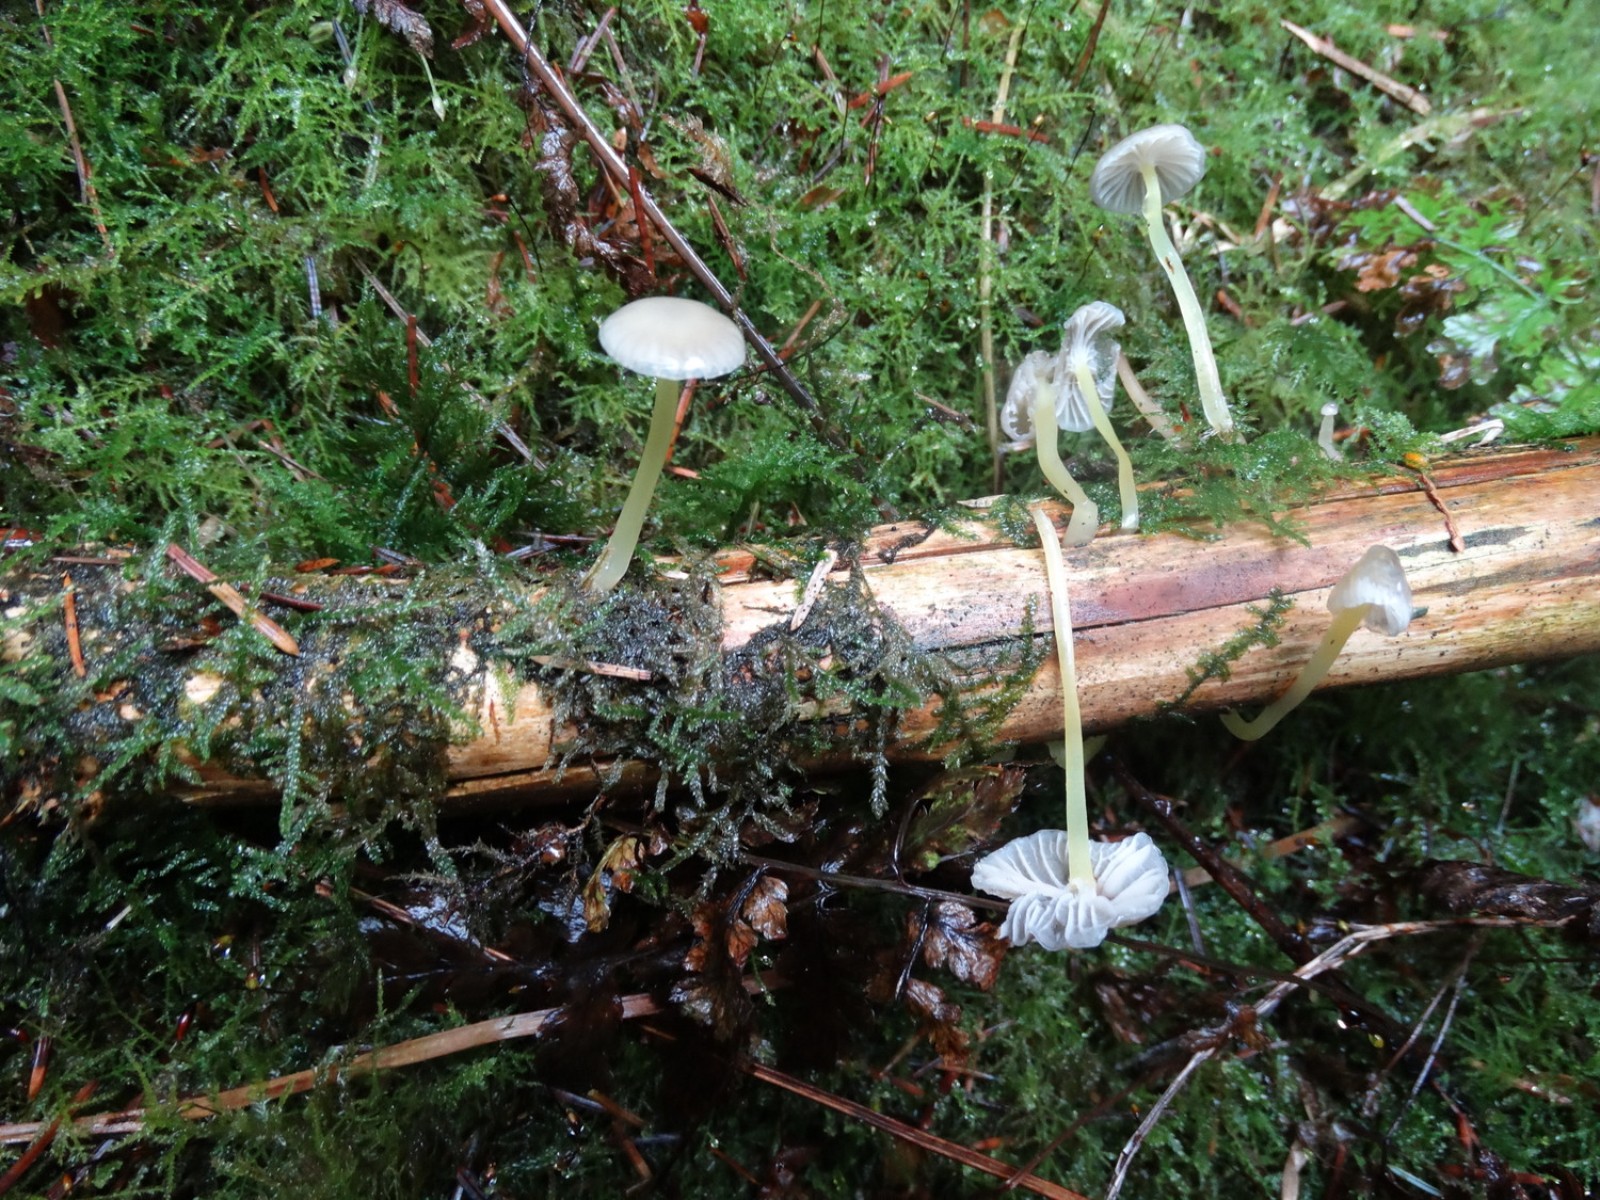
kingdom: Fungi
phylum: Basidiomycota
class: Agaricomycetes
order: Agaricales
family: Mycenaceae
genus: Mycena
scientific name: Mycena epipterygia
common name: gulstokket huesvamp
